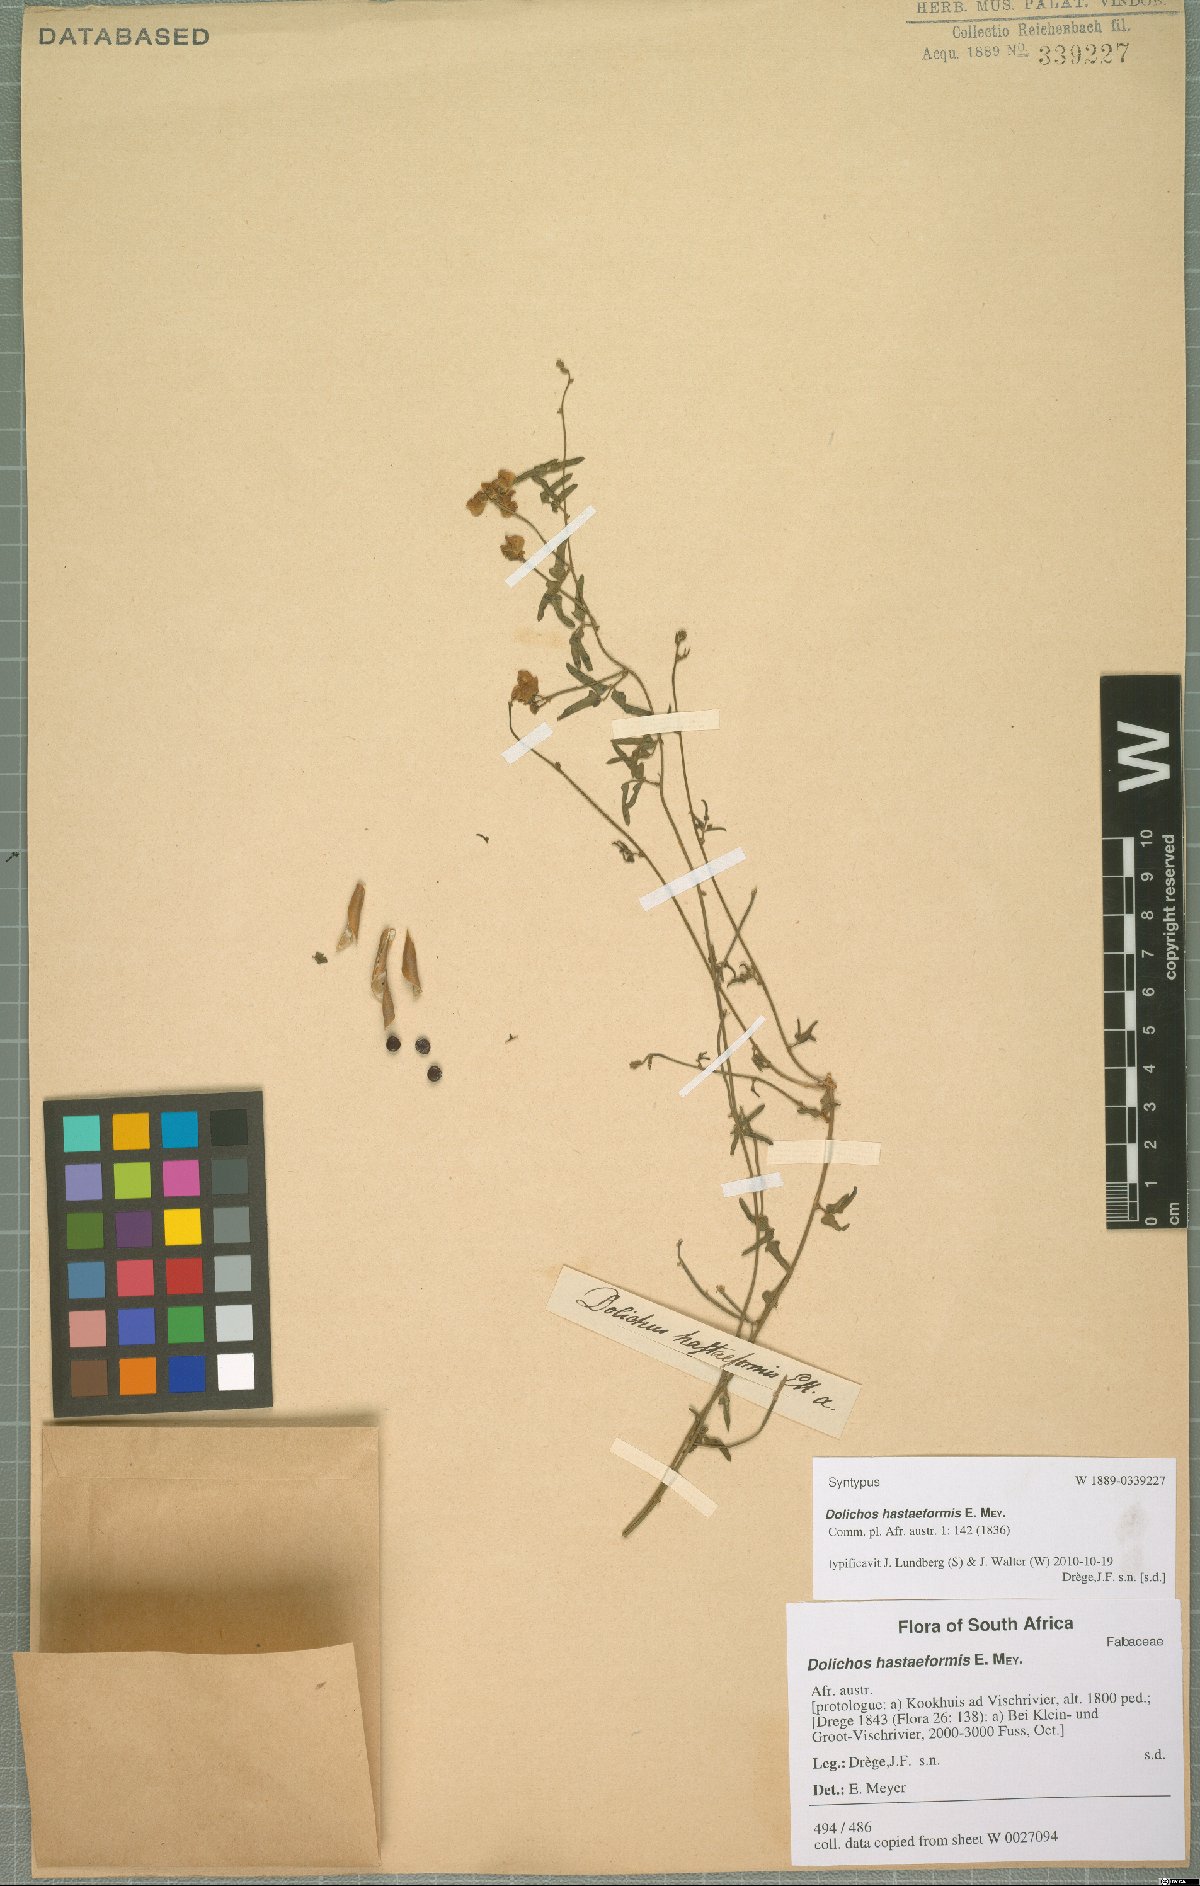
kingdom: Plantae
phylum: Tracheophyta
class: Magnoliopsida
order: Fabales
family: Fabaceae
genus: Dolichos
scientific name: Dolichos hastiformis
